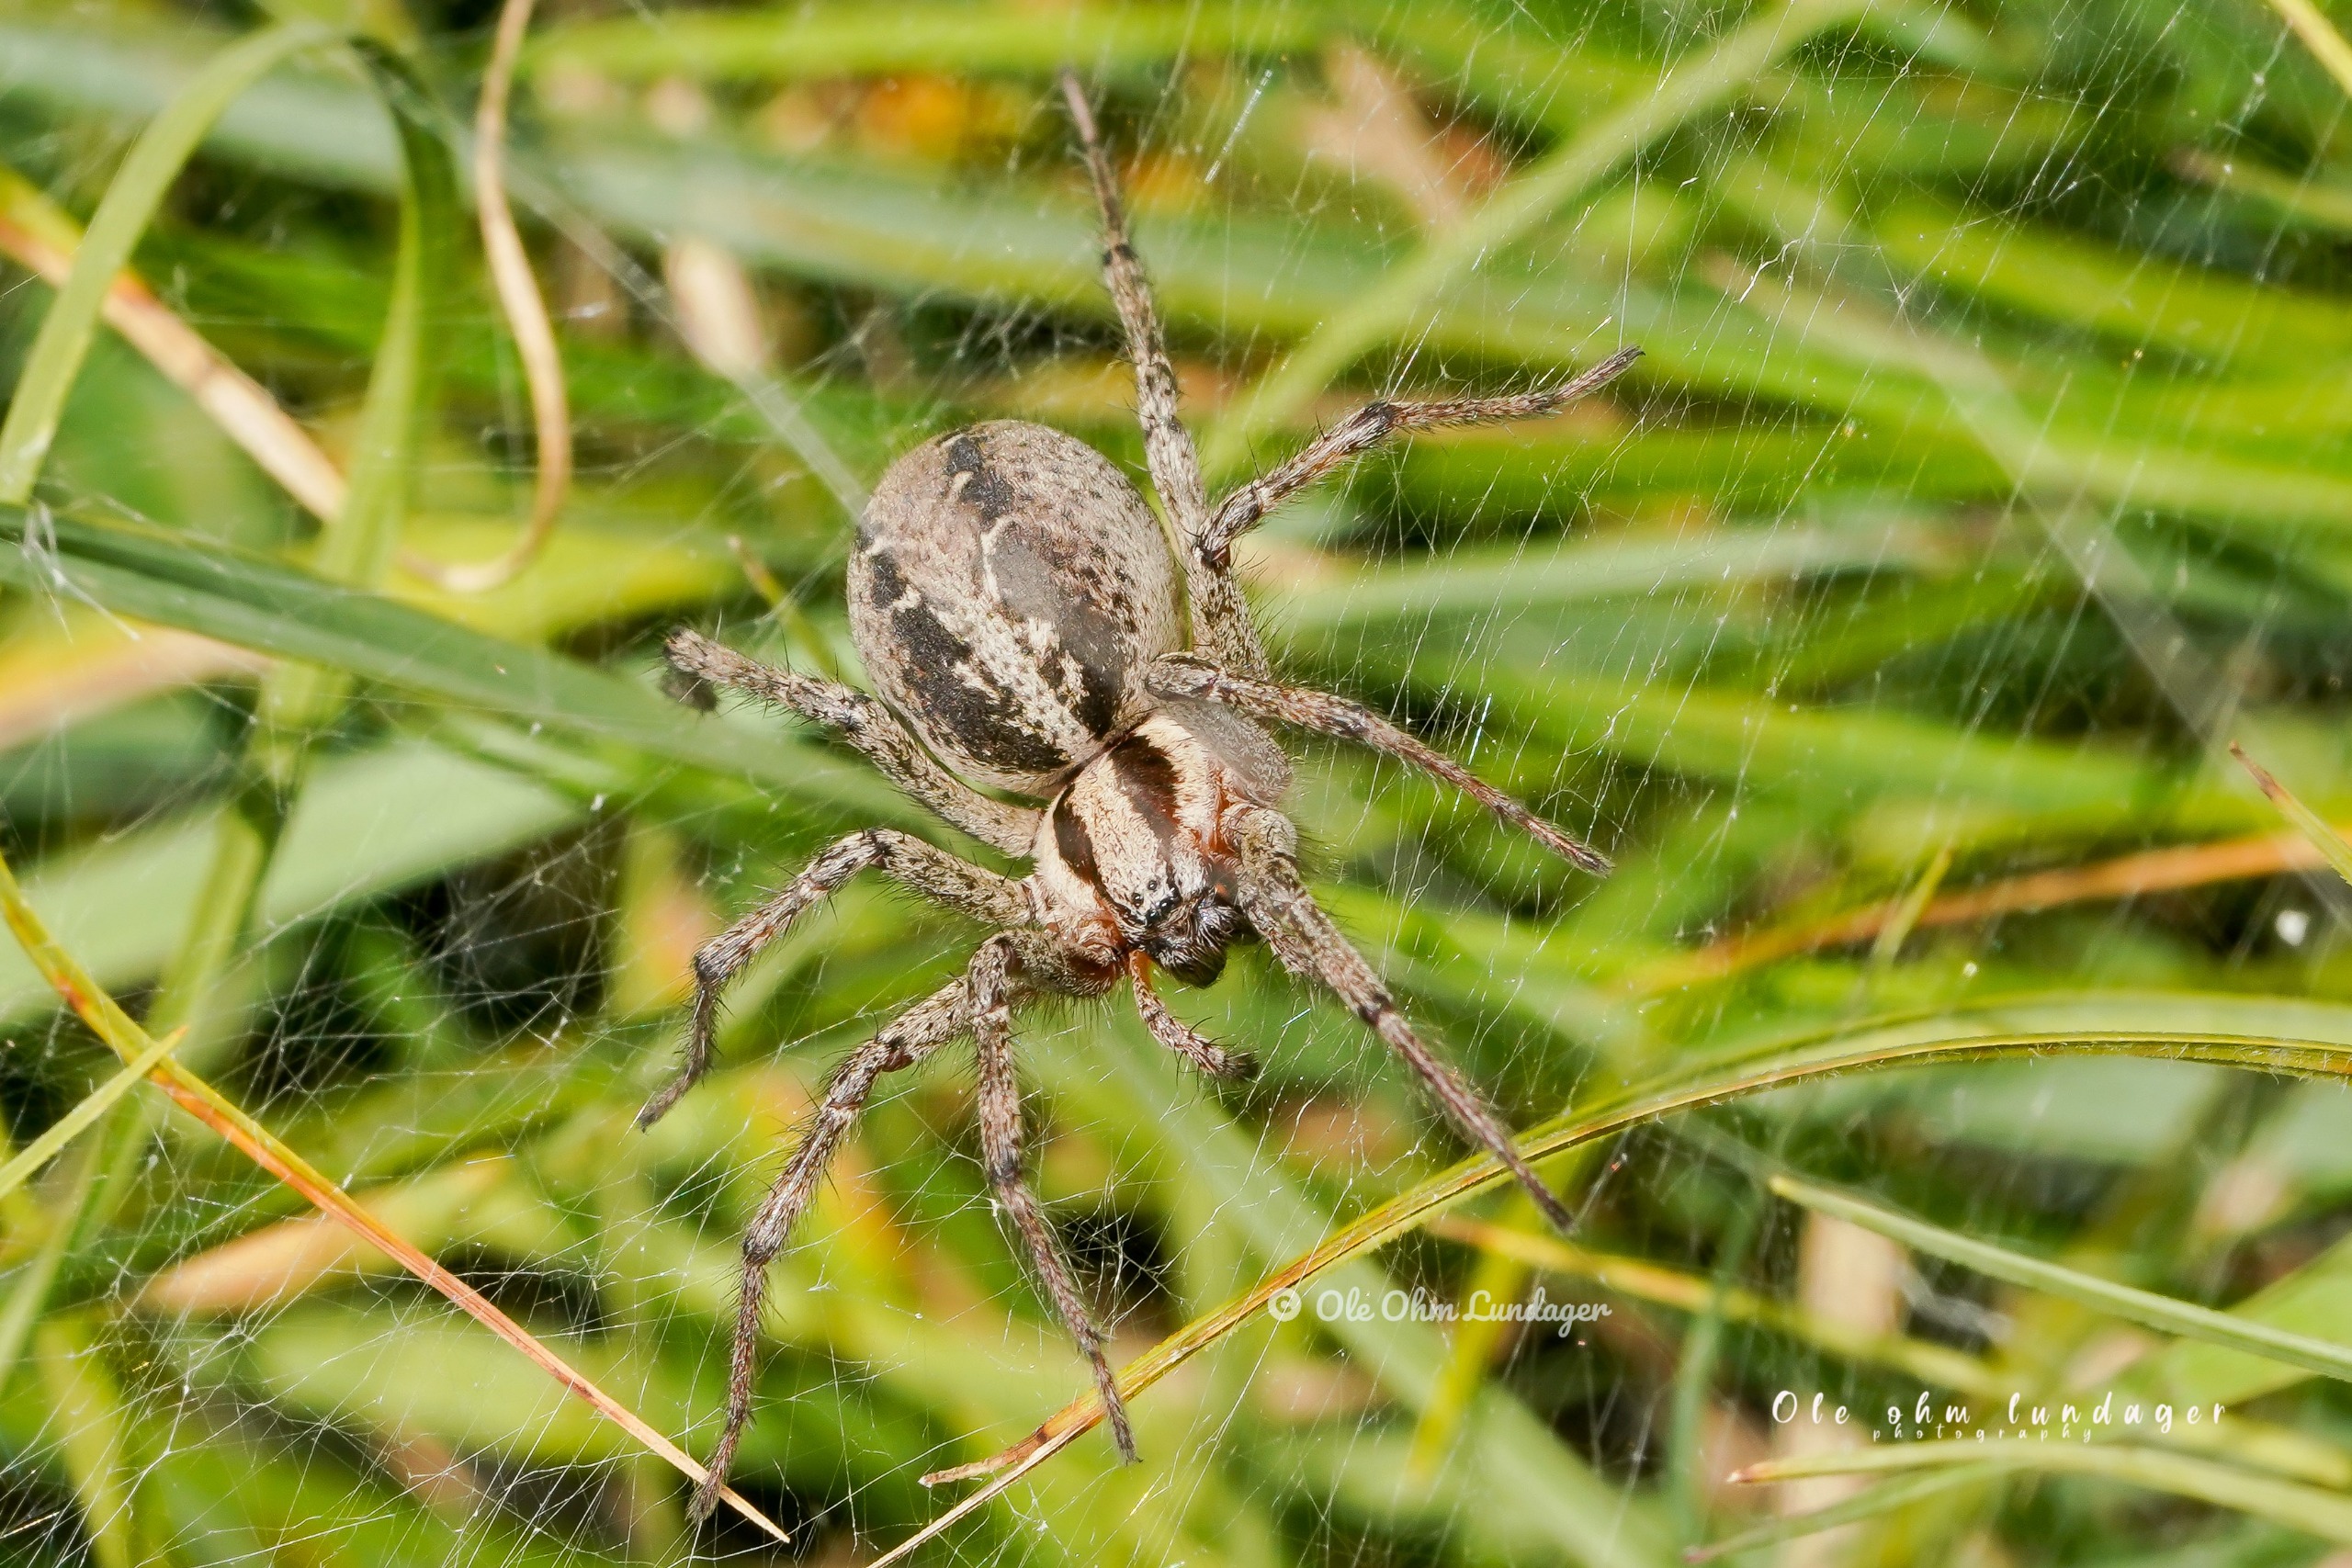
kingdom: Animalia
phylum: Arthropoda
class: Arachnida
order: Araneae
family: Agelenidae
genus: Agelena
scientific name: Agelena labyrinthica
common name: Labyrintedderkop
